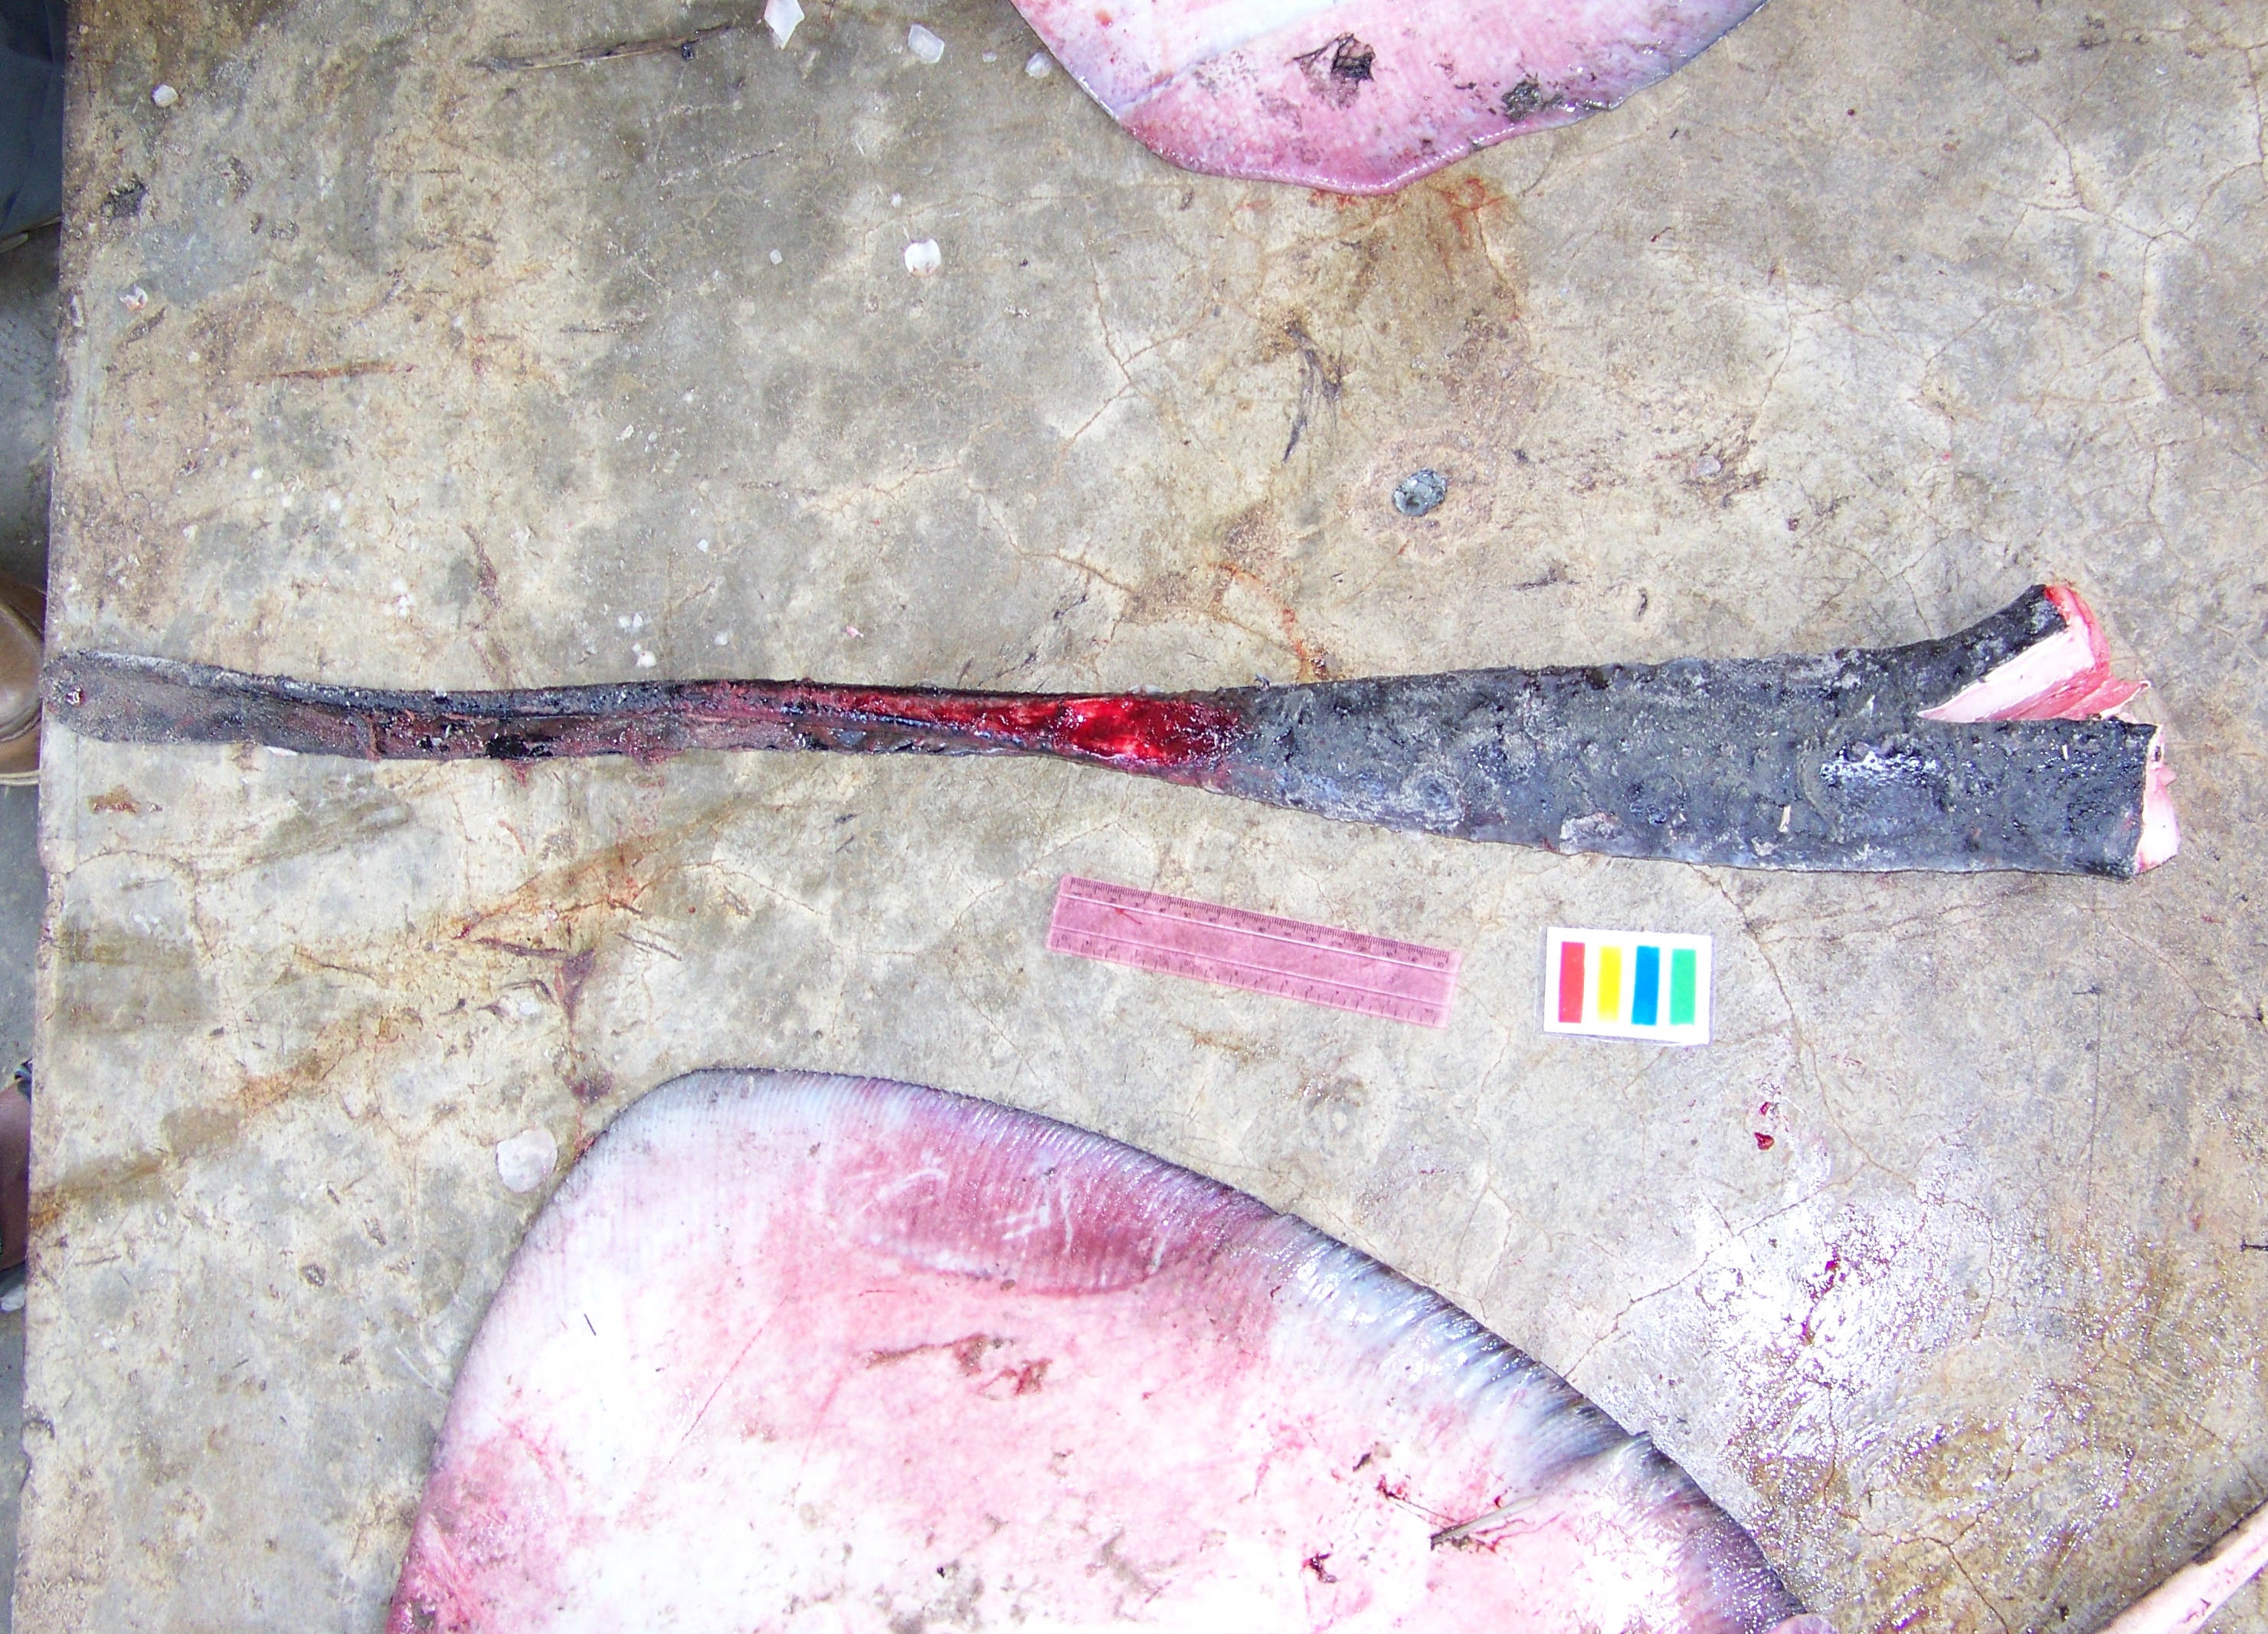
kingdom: Animalia
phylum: Chordata
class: Elasmobranchii
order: Myliobatiformes
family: Dasyatidae
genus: Taeniurops
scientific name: Taeniurops meyeni
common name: Black-blotched stingray
